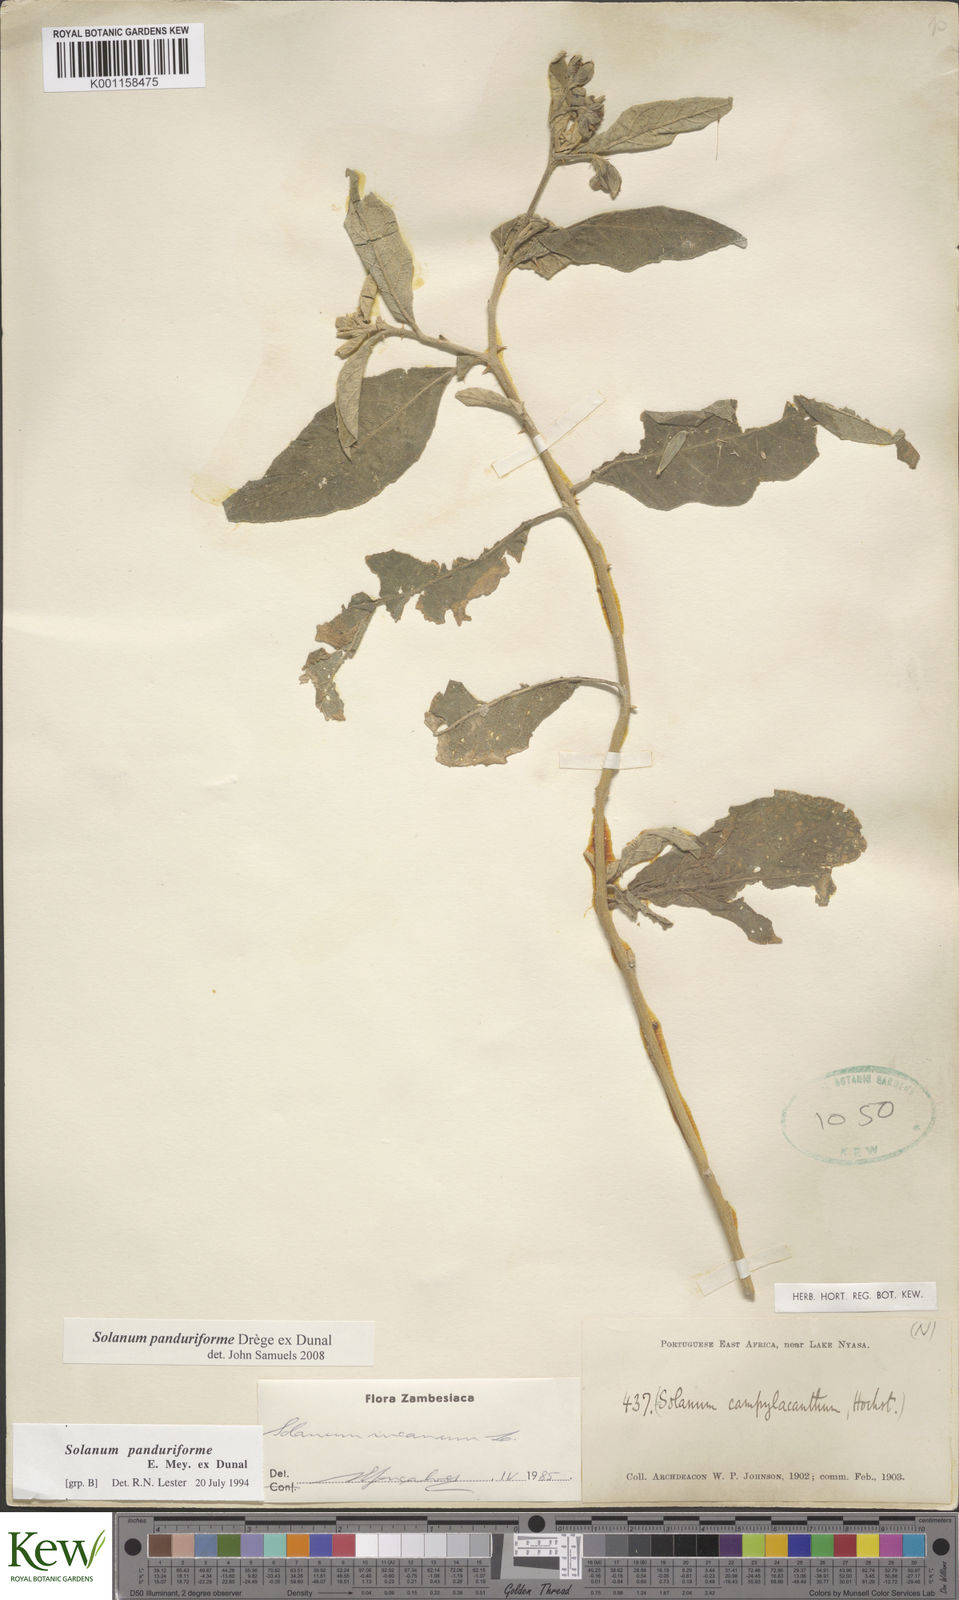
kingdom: Plantae
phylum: Tracheophyta
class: Magnoliopsida
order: Solanales
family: Solanaceae
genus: Solanum
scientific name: Solanum campylacanthum
